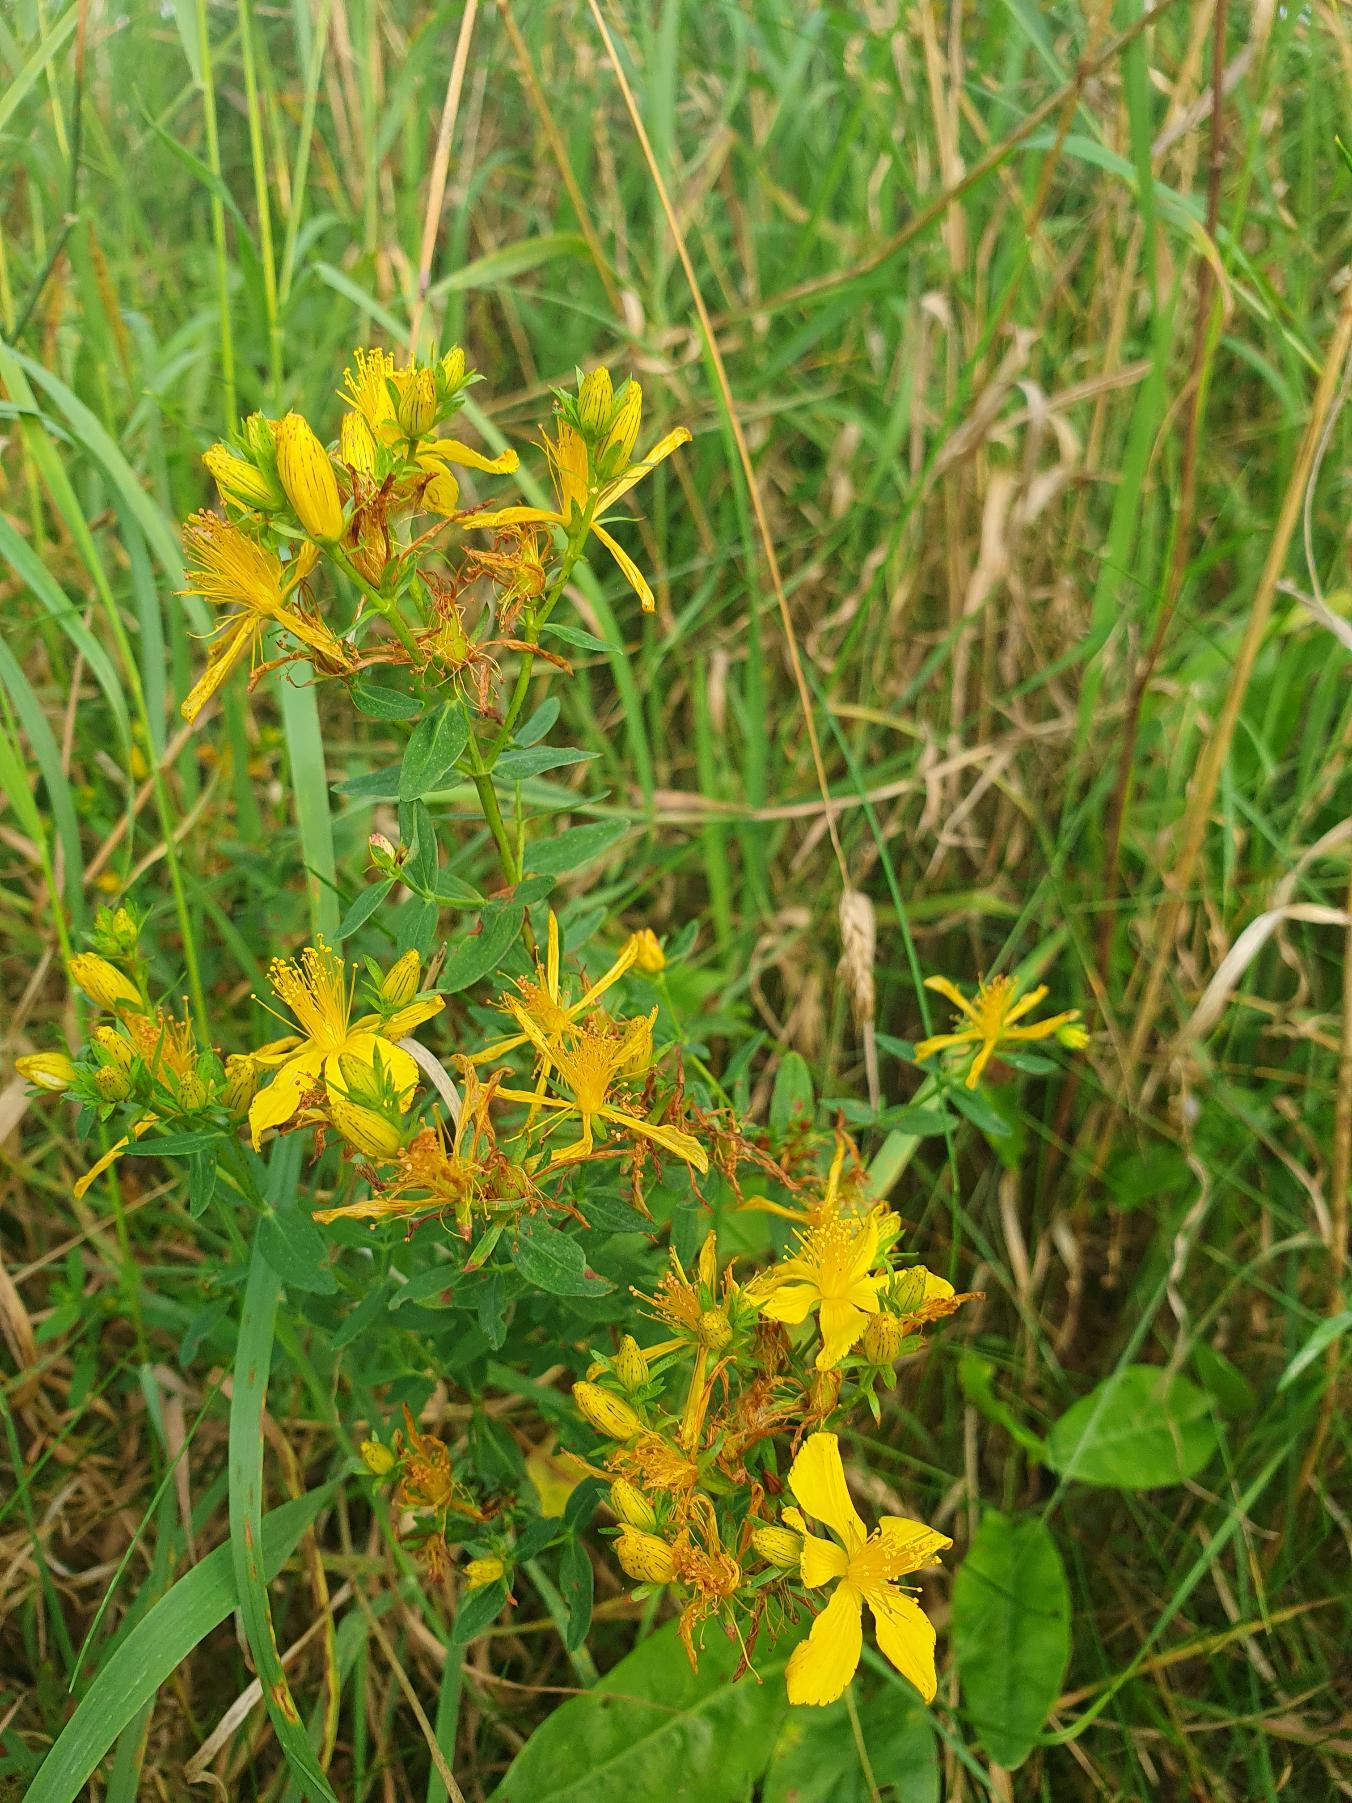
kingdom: Plantae
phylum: Tracheophyta
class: Magnoliopsida
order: Malpighiales
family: Hypericaceae
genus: Hypericum
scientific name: Hypericum perforatum
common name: Prikbladet perikon
